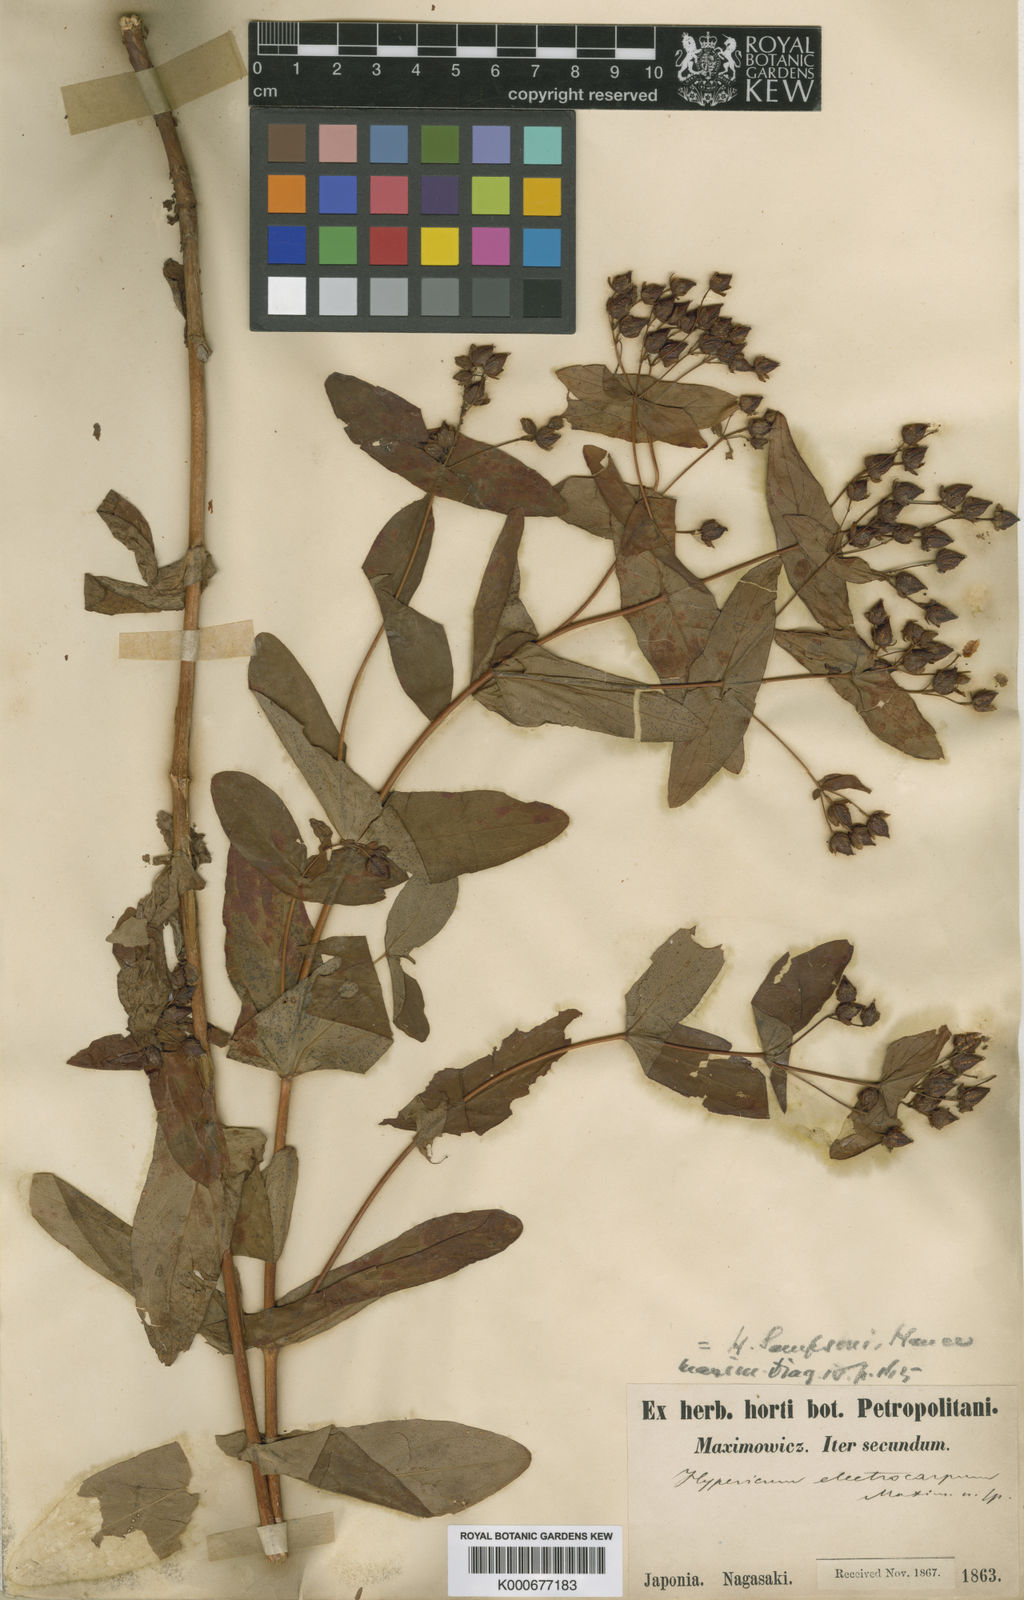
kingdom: Plantae
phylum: Tracheophyta
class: Magnoliopsida
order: Malpighiales
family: Hypericaceae
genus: Hypericum
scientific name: Hypericum sampsonii
